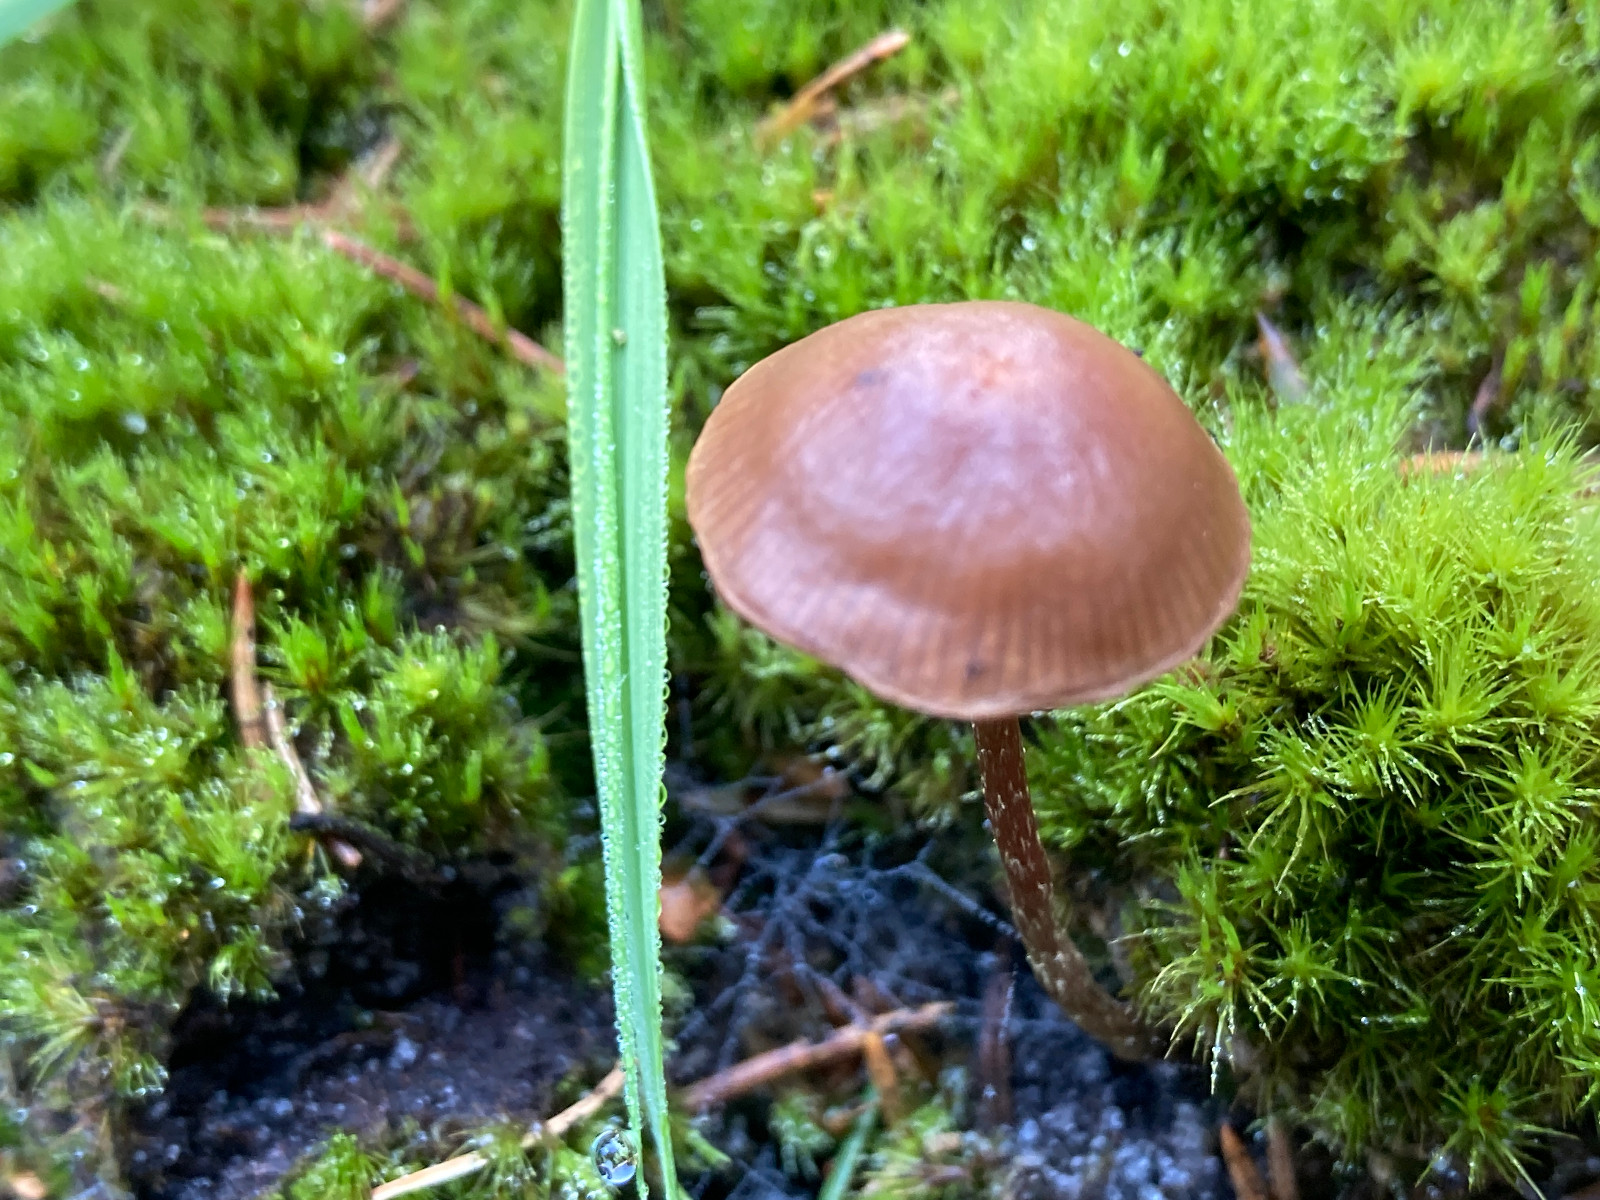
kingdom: Fungi
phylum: Basidiomycota
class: Agaricomycetes
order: Agaricales
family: Strophariaceae
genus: Bogbodia
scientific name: Bogbodia uda
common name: tørve-svovlhat
